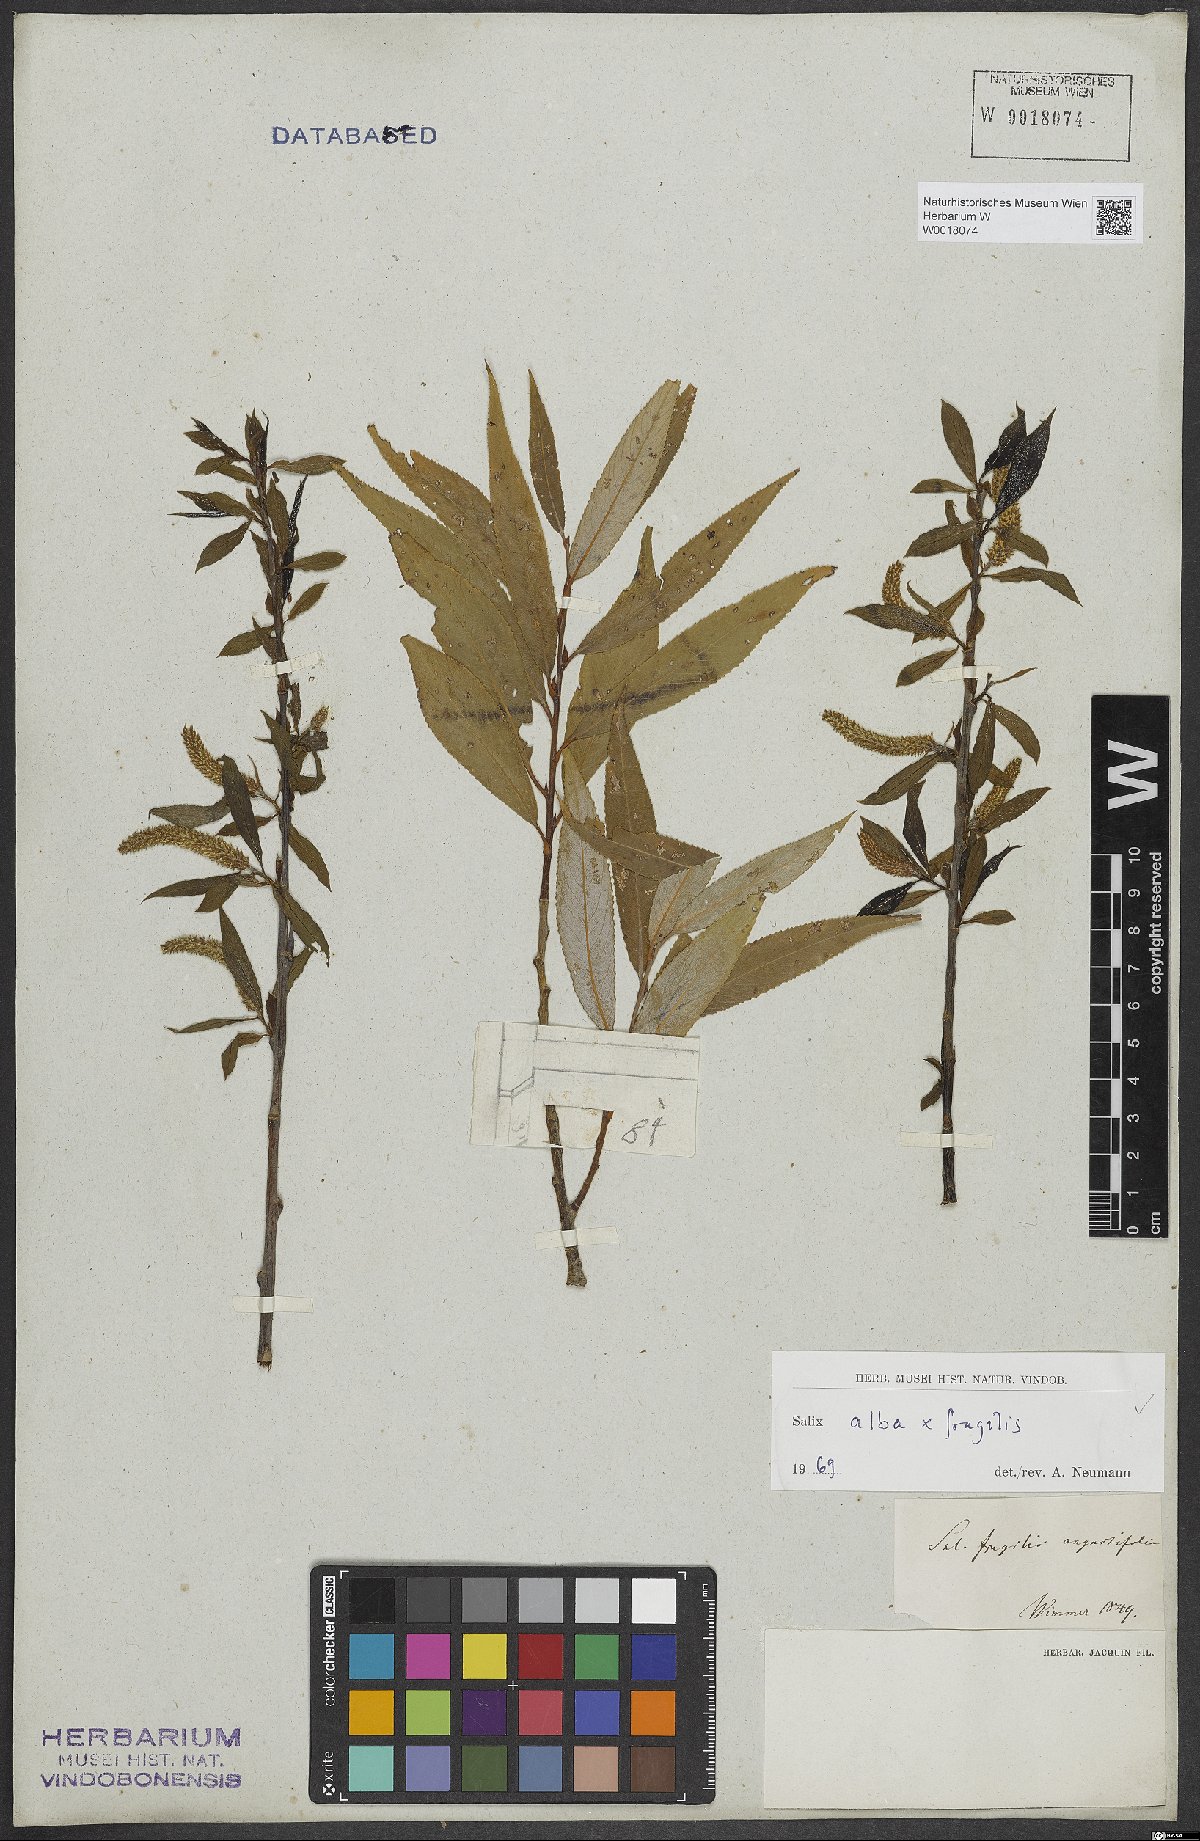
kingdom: Plantae
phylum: Tracheophyta
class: Magnoliopsida
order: Malpighiales
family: Salicaceae
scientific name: Salicaceae
